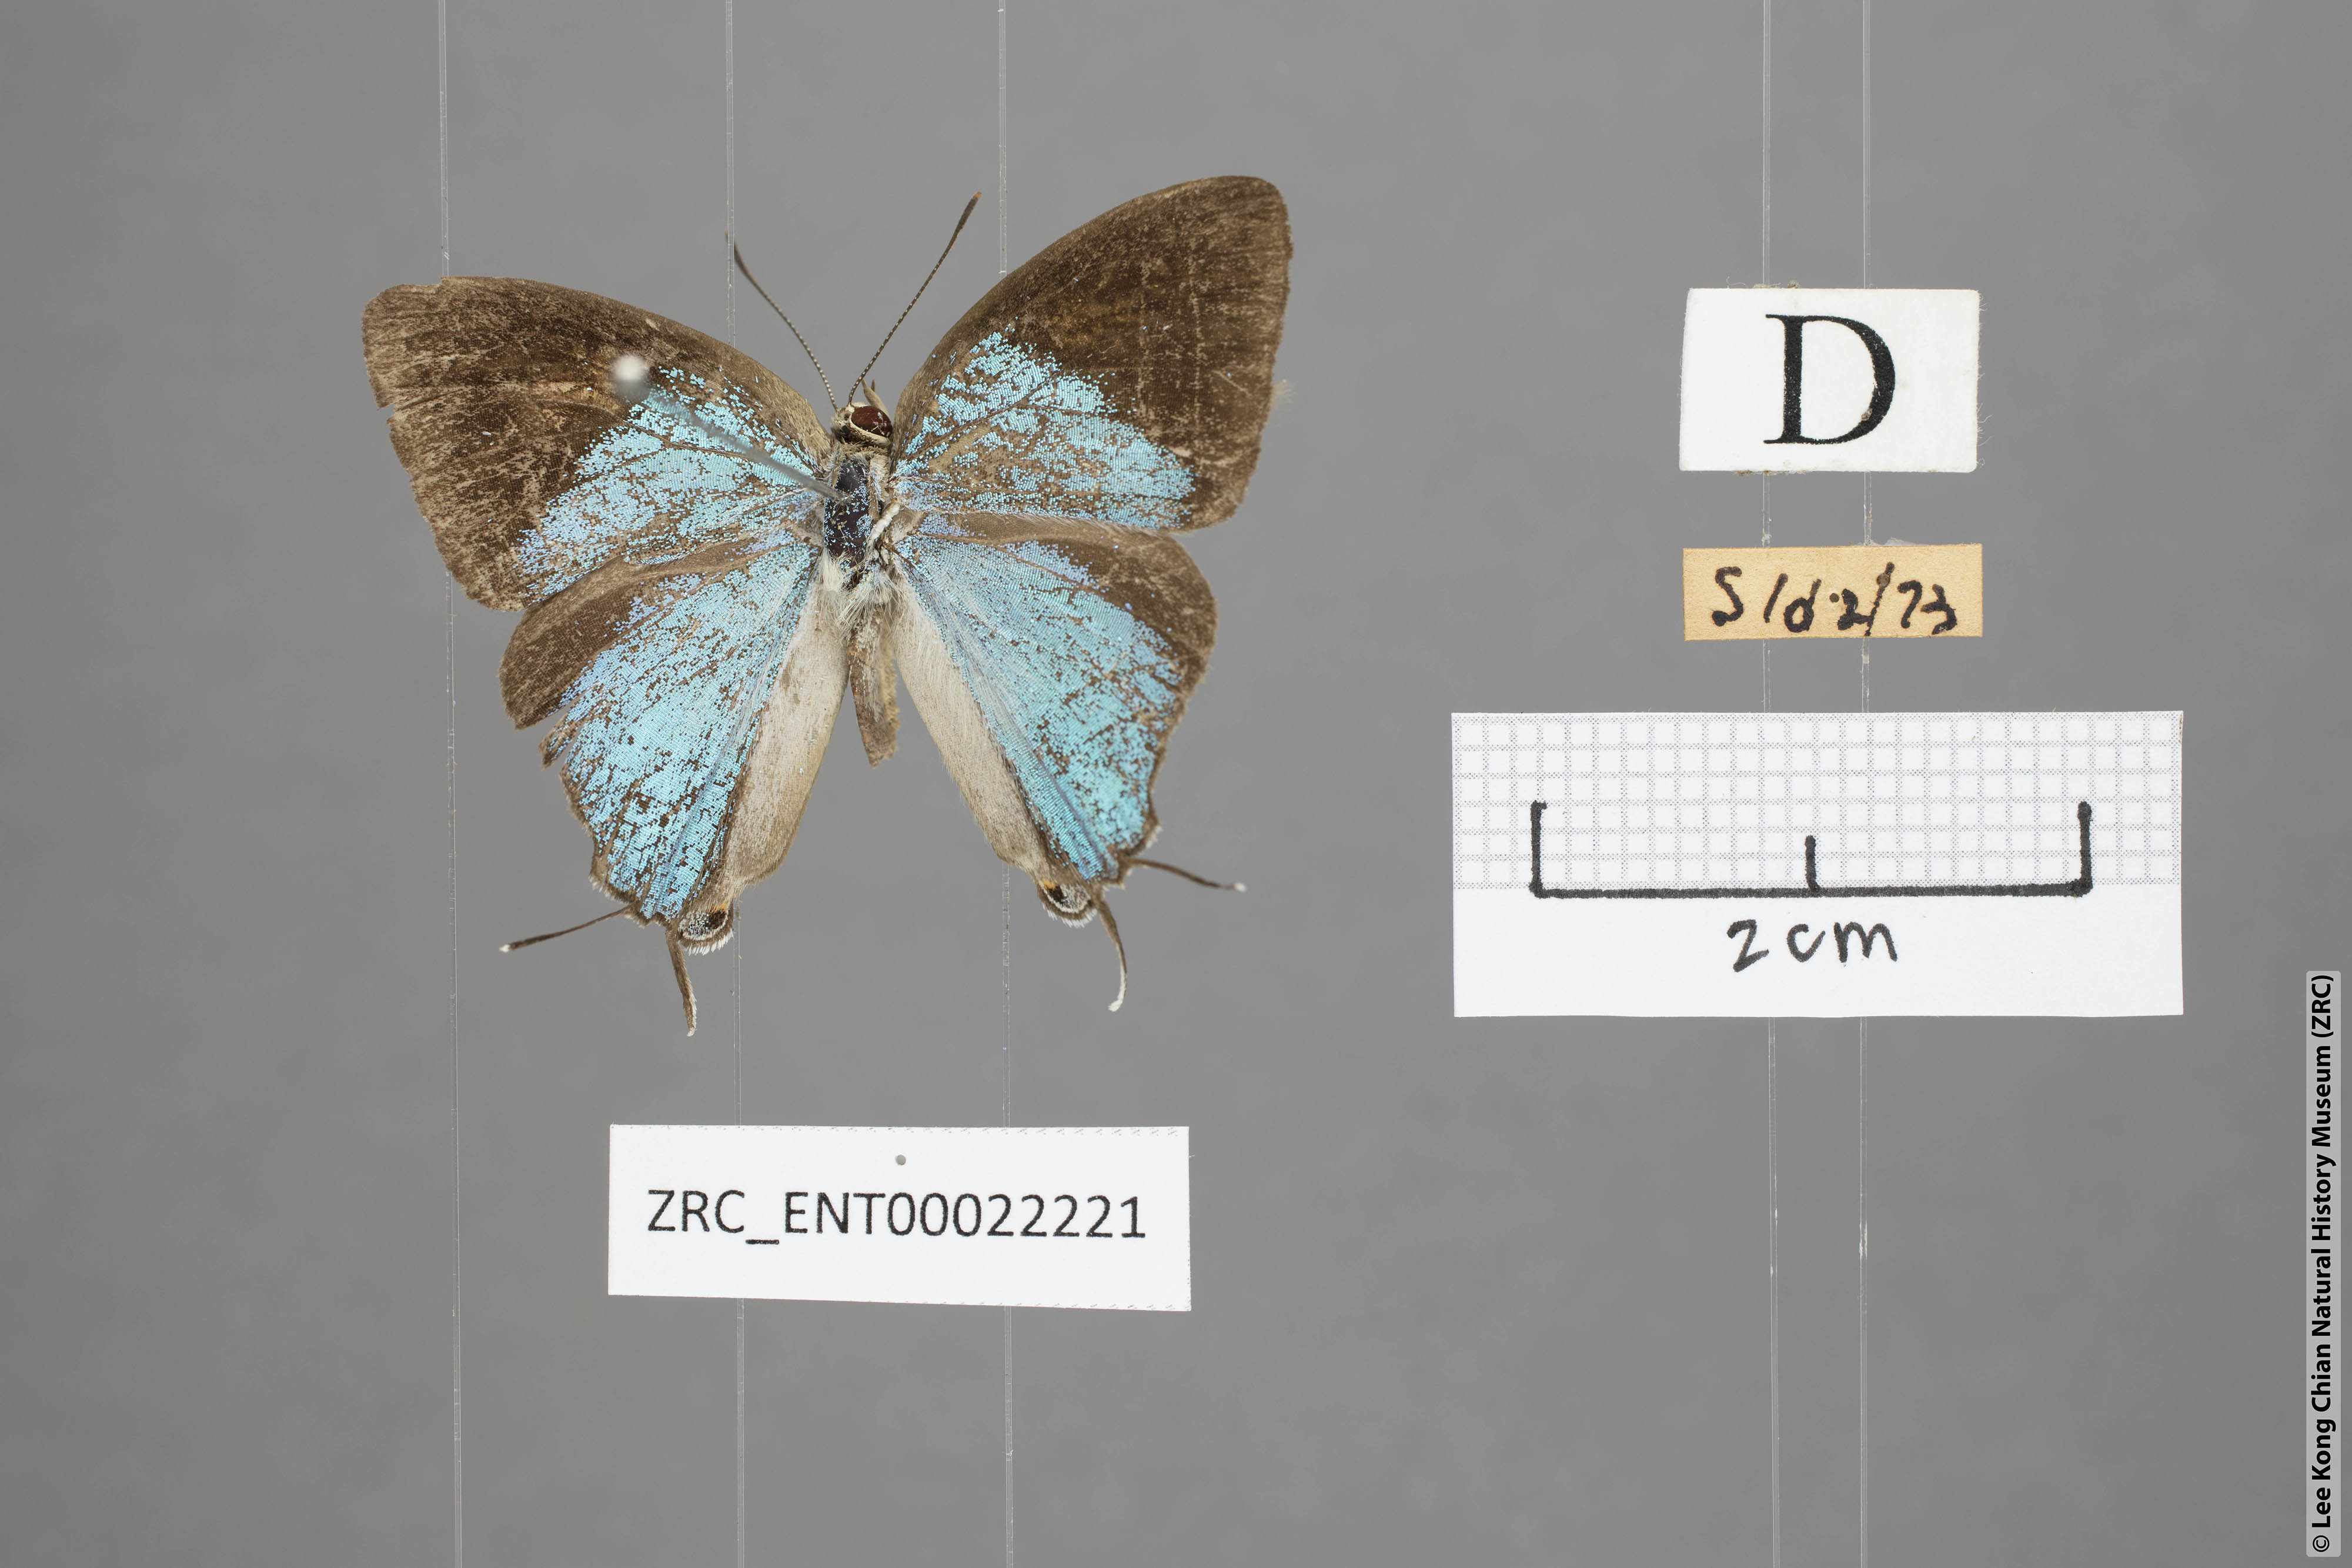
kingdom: Animalia
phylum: Arthropoda
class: Insecta
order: Lepidoptera
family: Lycaenidae
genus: Tajuria
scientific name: Tajuria mantra
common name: Felder's royal
